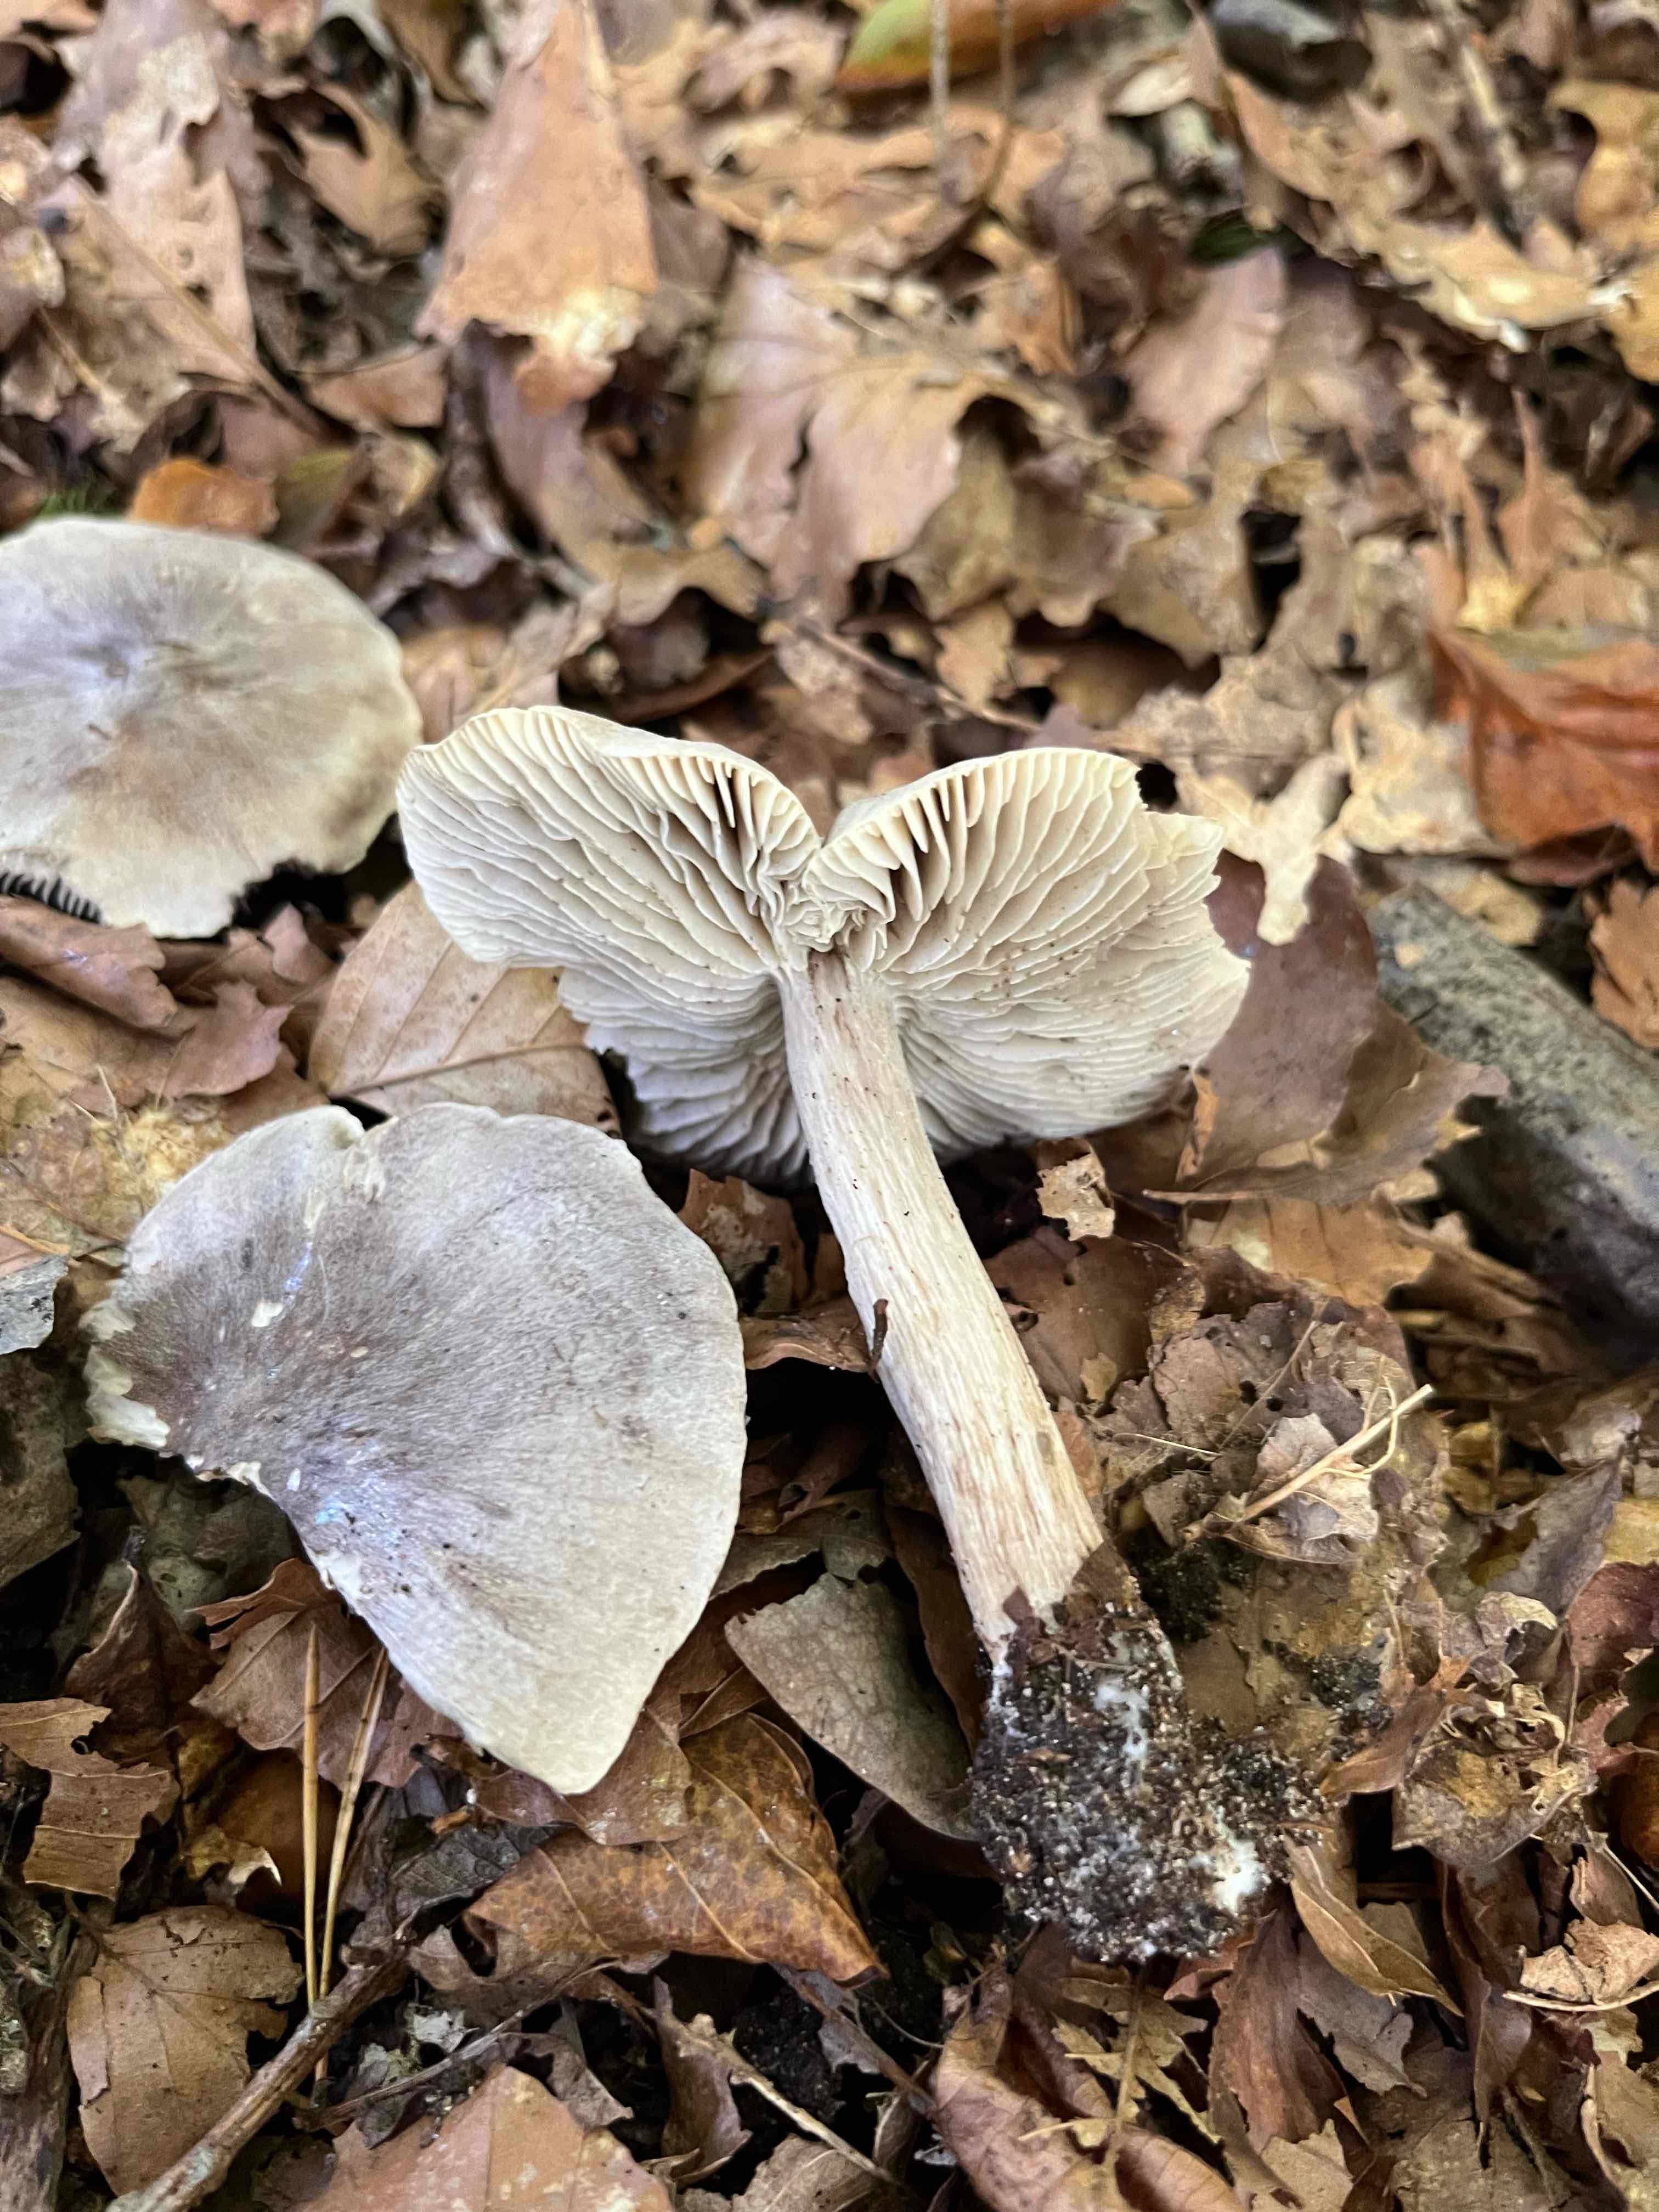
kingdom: Fungi
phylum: Basidiomycota
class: Agaricomycetes
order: Agaricales
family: Tricholomataceae
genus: Tricholoma
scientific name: Tricholoma sciodes
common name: stribet ridderhat
